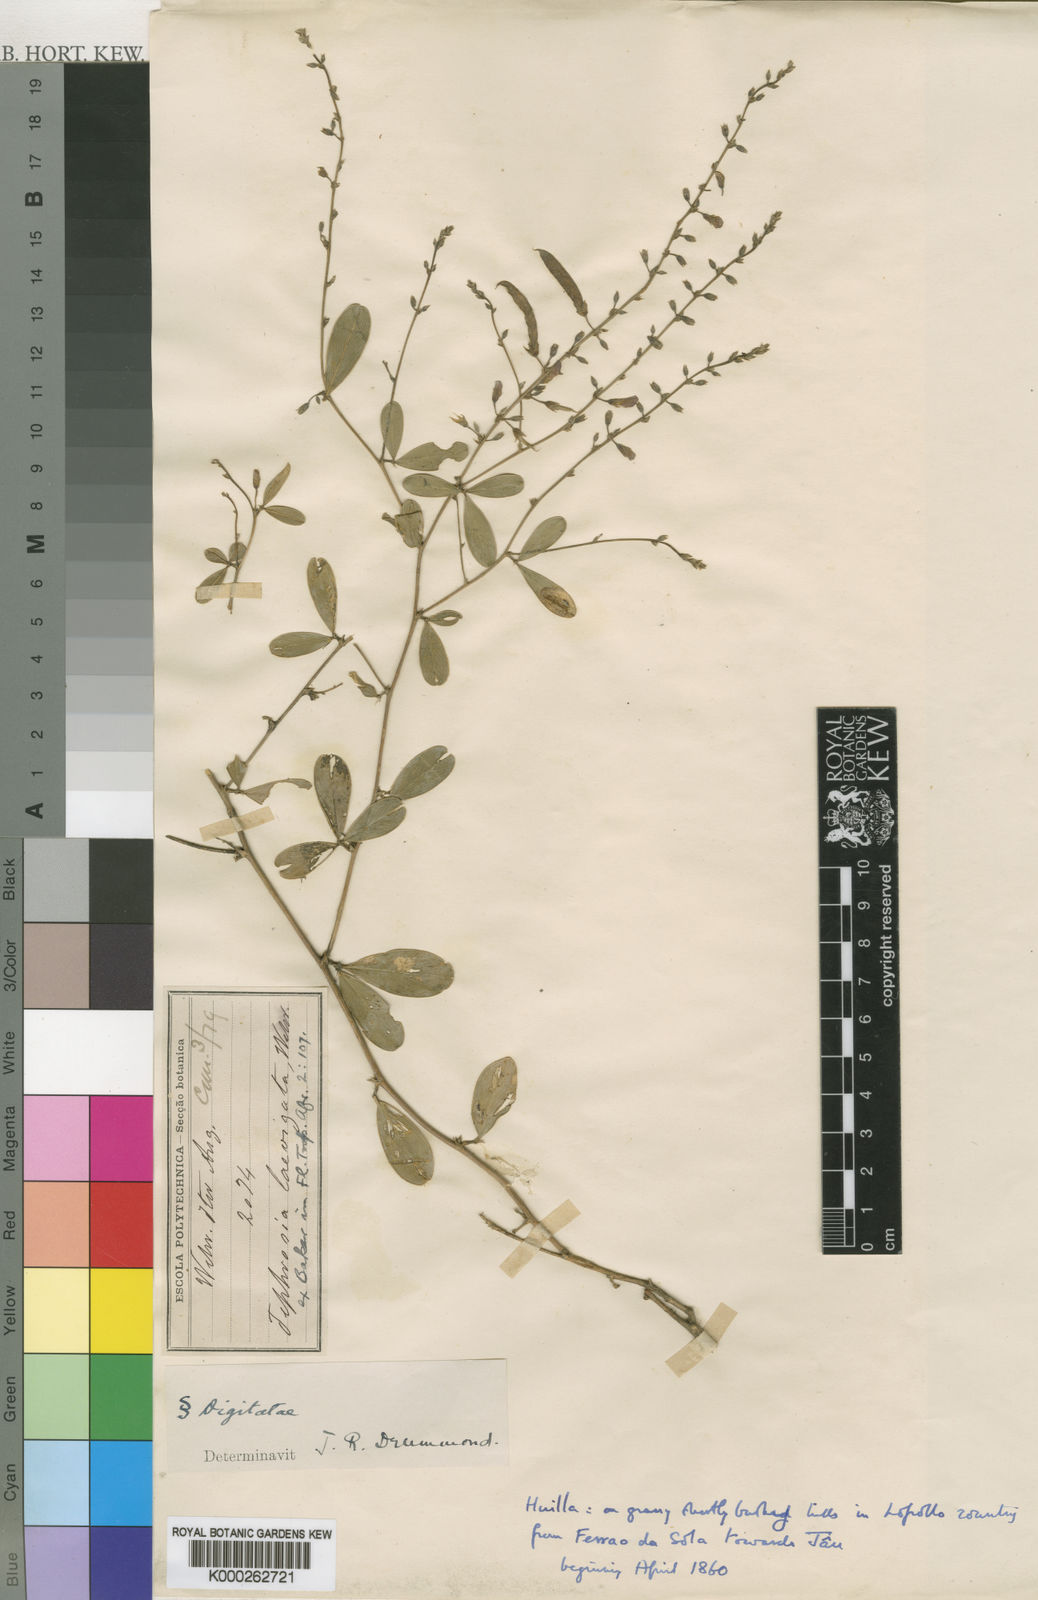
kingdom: Plantae
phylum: Tracheophyta
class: Magnoliopsida
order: Fabales
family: Fabaceae
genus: Tephrosia
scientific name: Tephrosia lupinifolia
